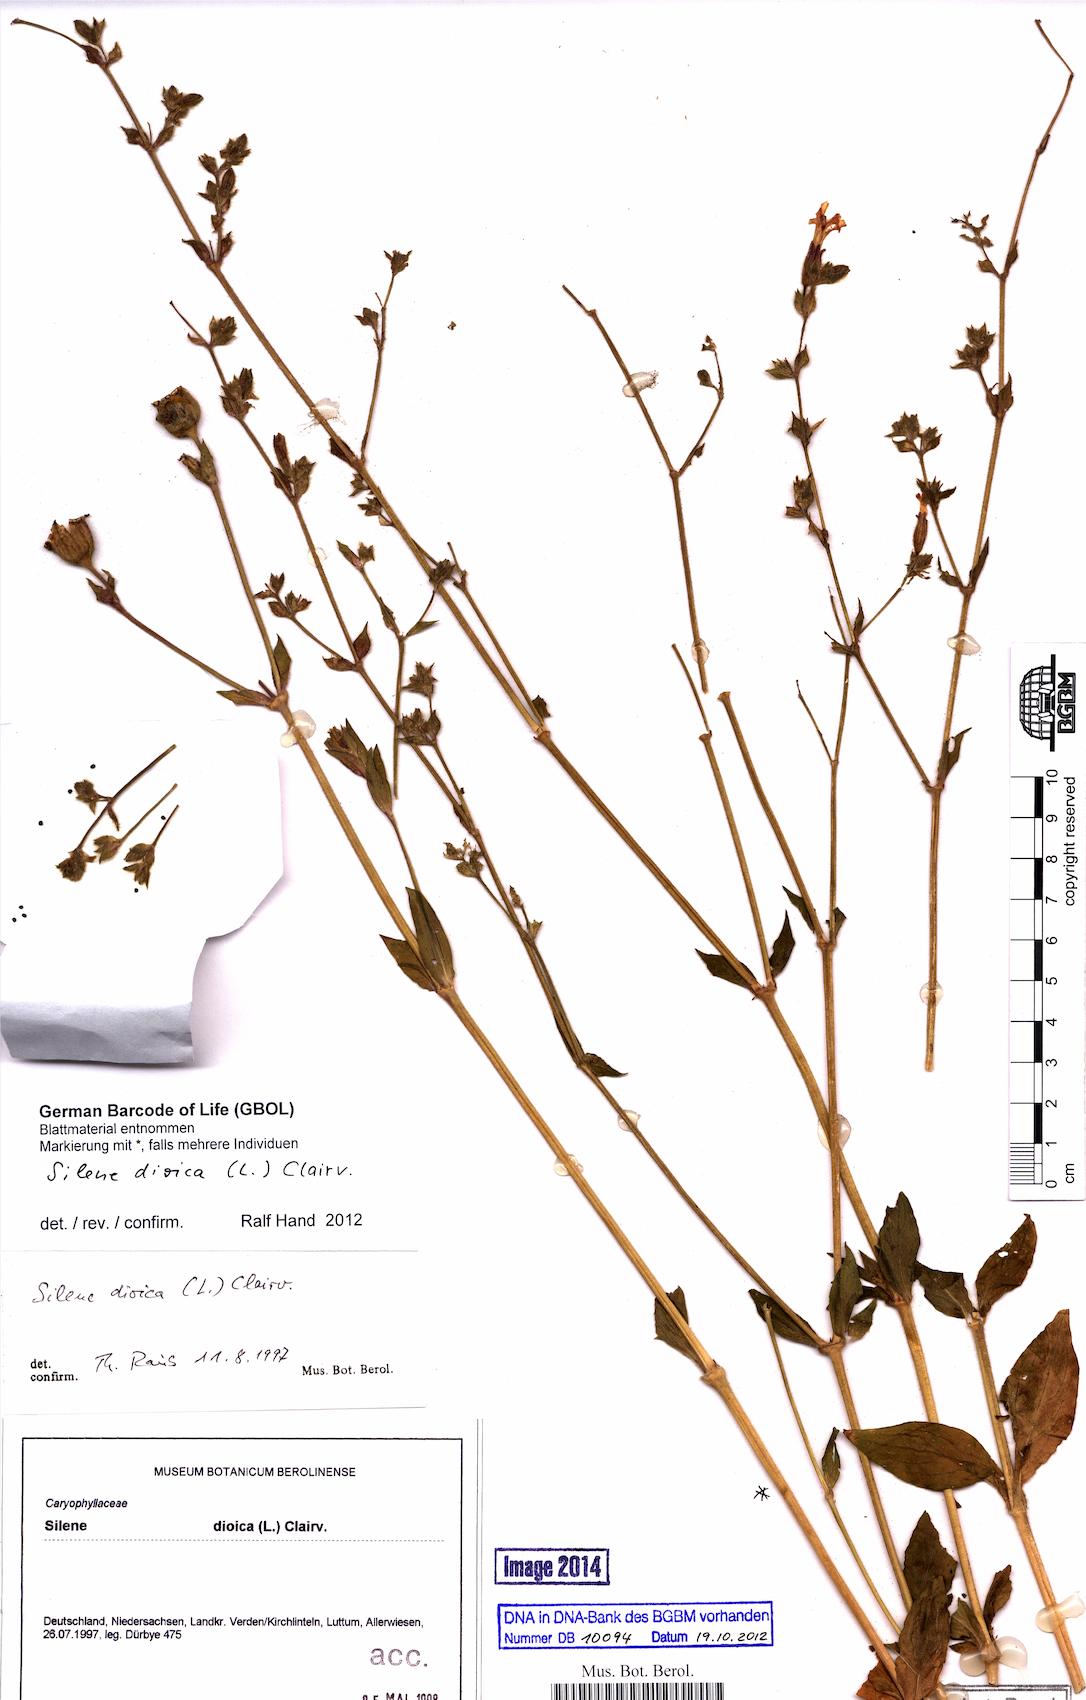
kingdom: Plantae
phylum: Tracheophyta
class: Magnoliopsida
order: Caryophyllales
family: Caryophyllaceae
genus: Silene
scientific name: Silene dioica
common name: Red campion
